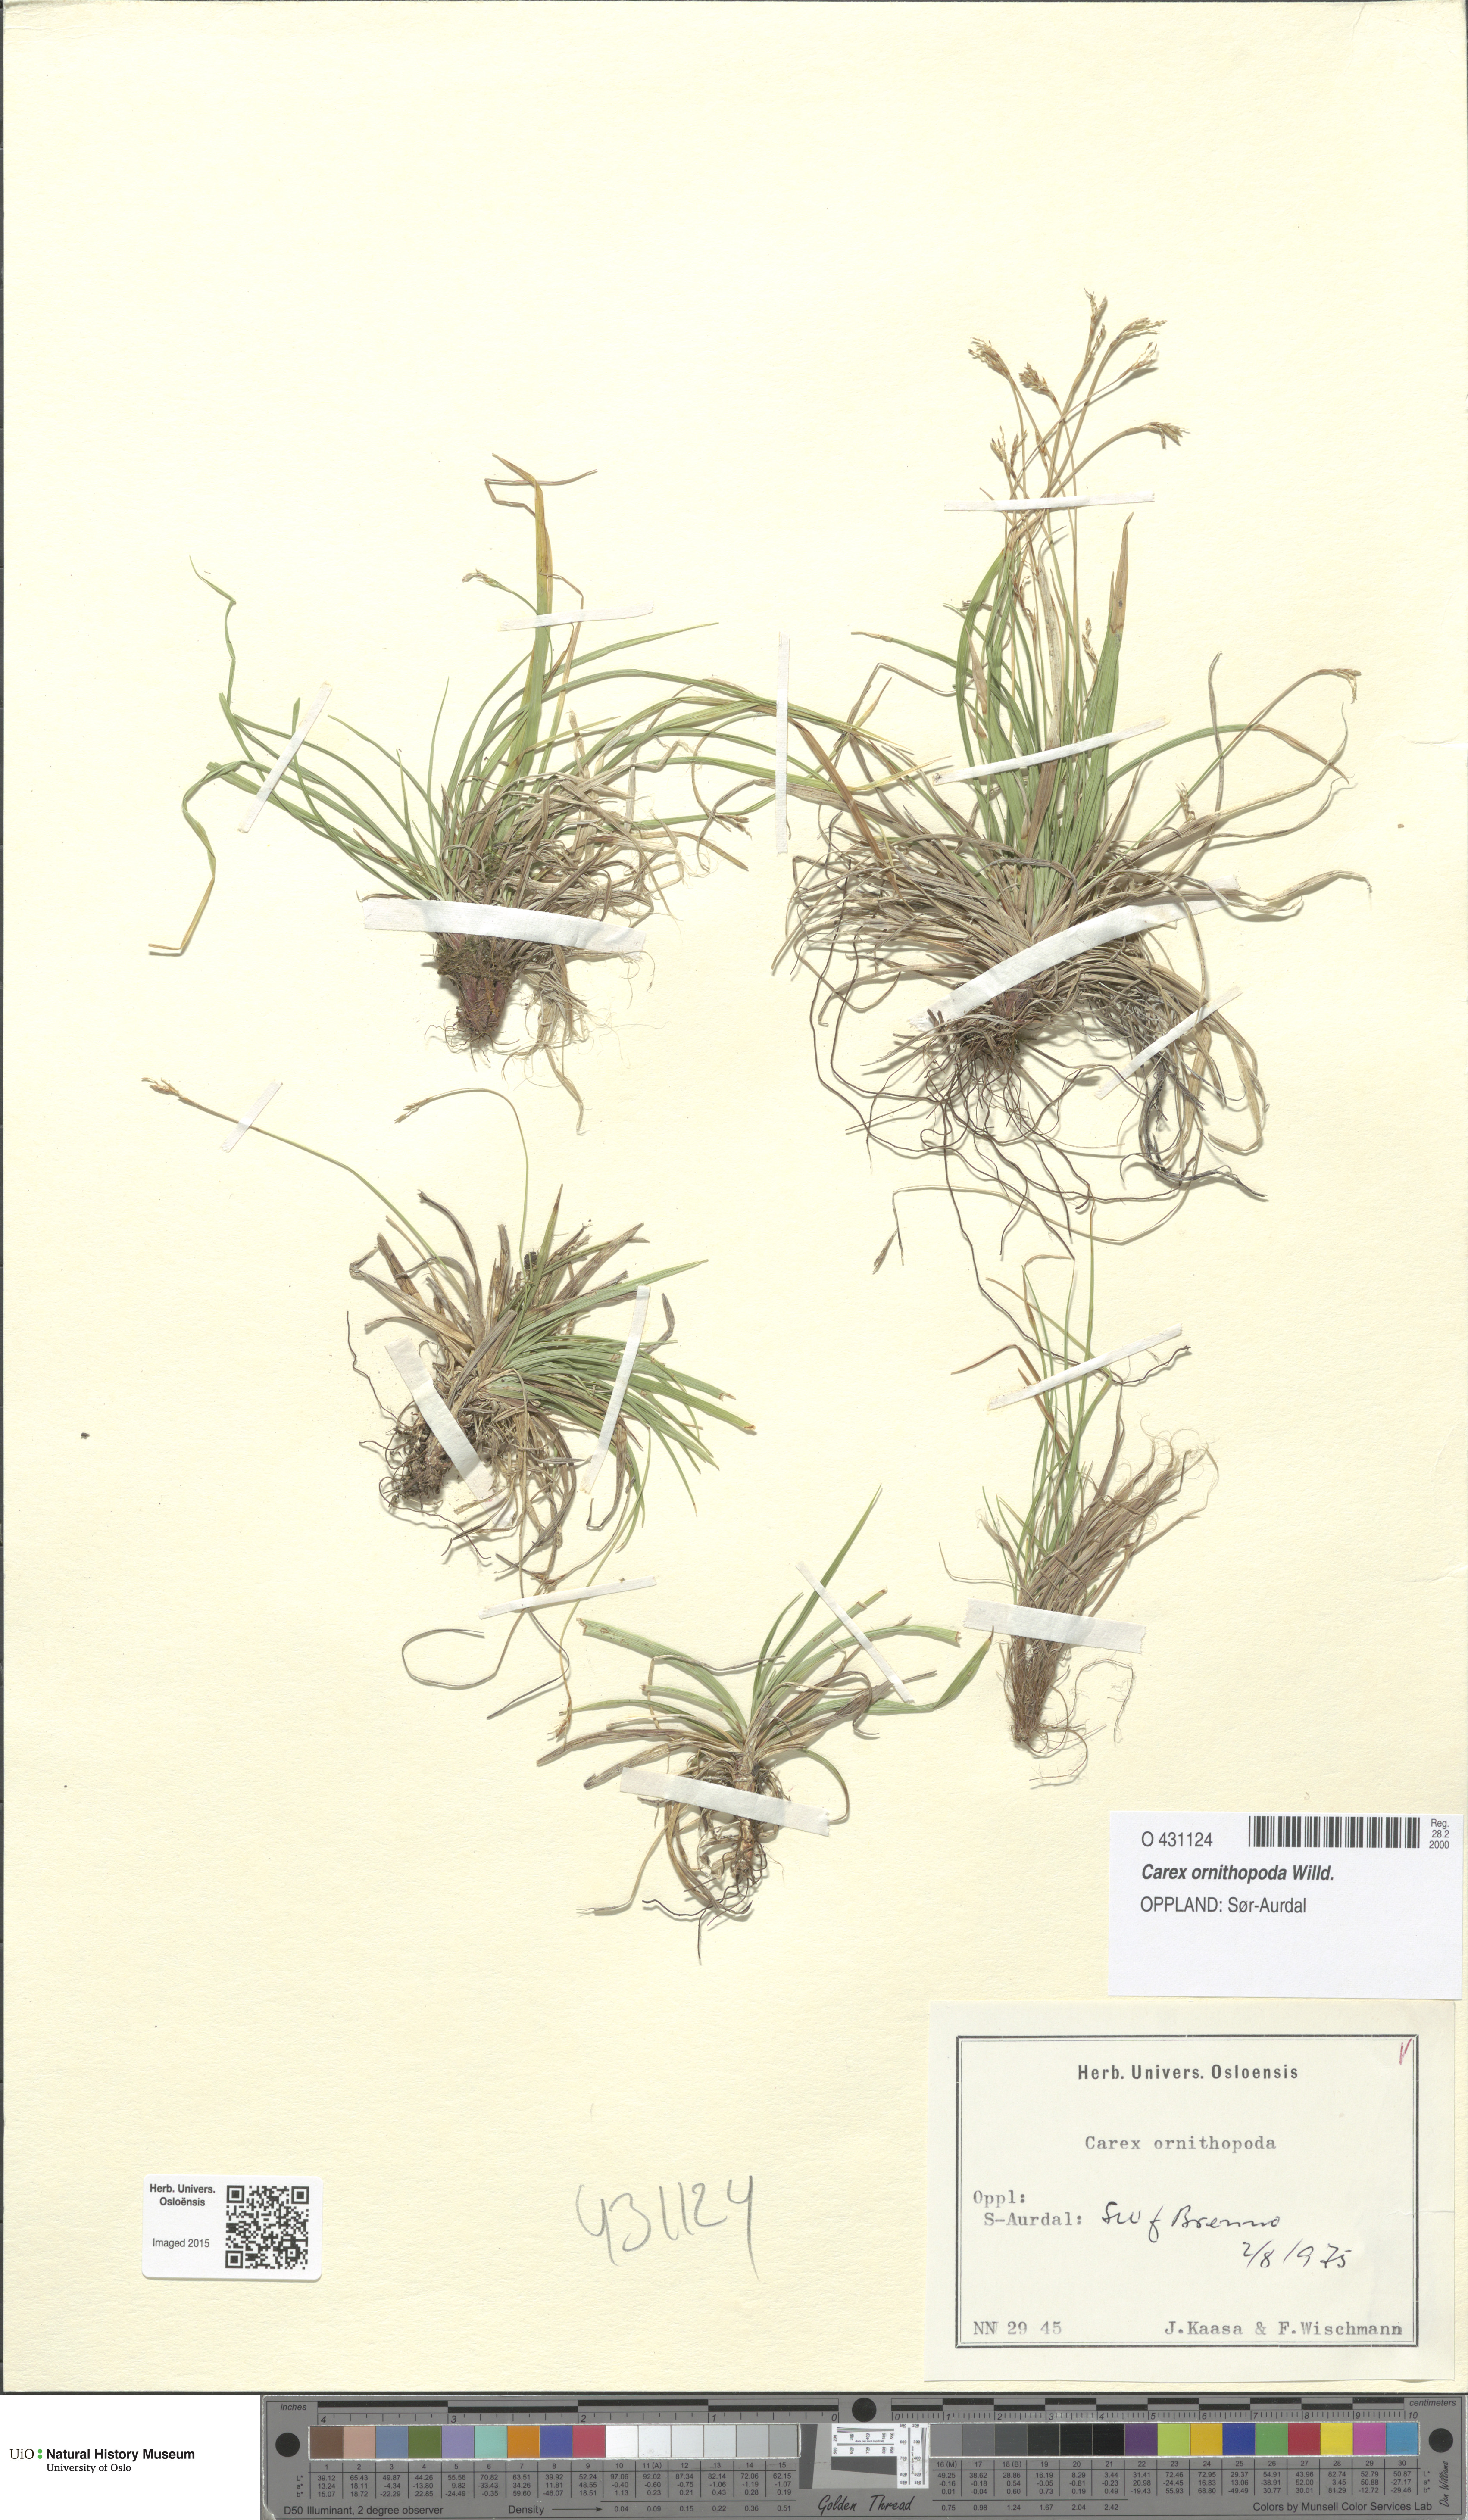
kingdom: Plantae
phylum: Tracheophyta
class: Liliopsida
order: Poales
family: Cyperaceae
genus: Carex
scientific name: Carex ornithopoda
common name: Bird's-foot sedge
